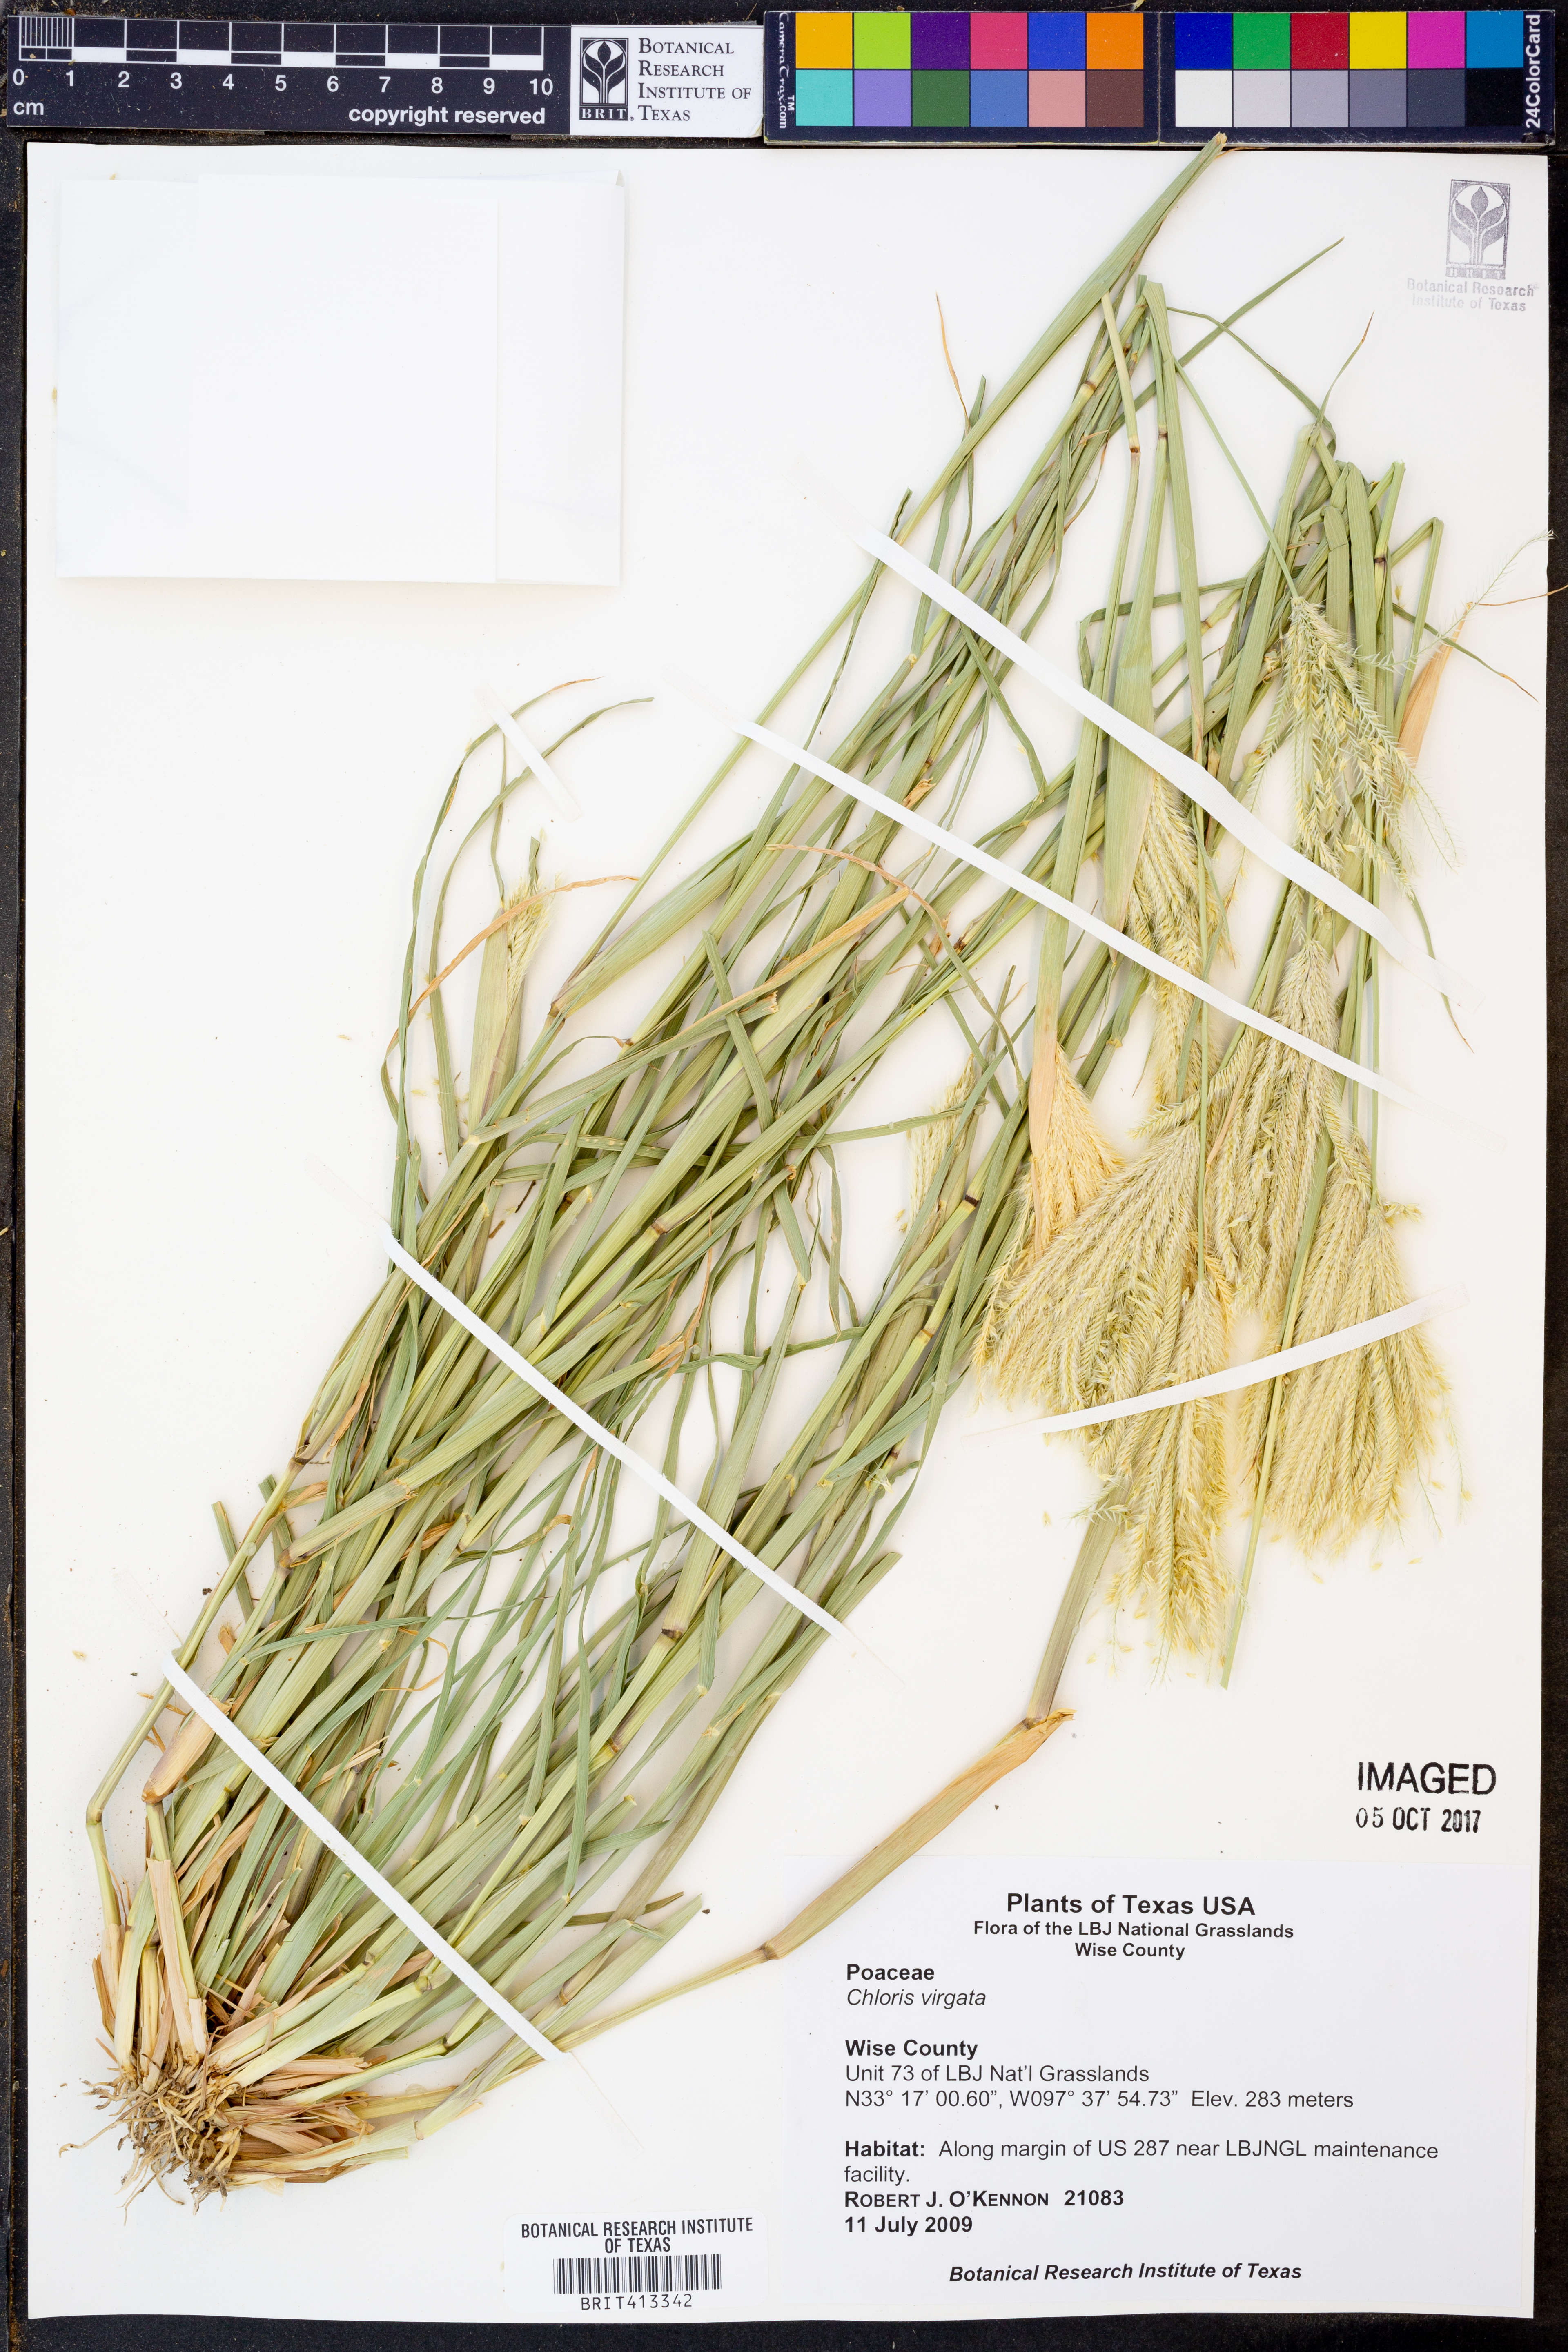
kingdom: Plantae
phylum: Tracheophyta
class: Liliopsida
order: Poales
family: Poaceae
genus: Chloris
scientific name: Chloris virgata
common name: Feathery rhodes-grass
